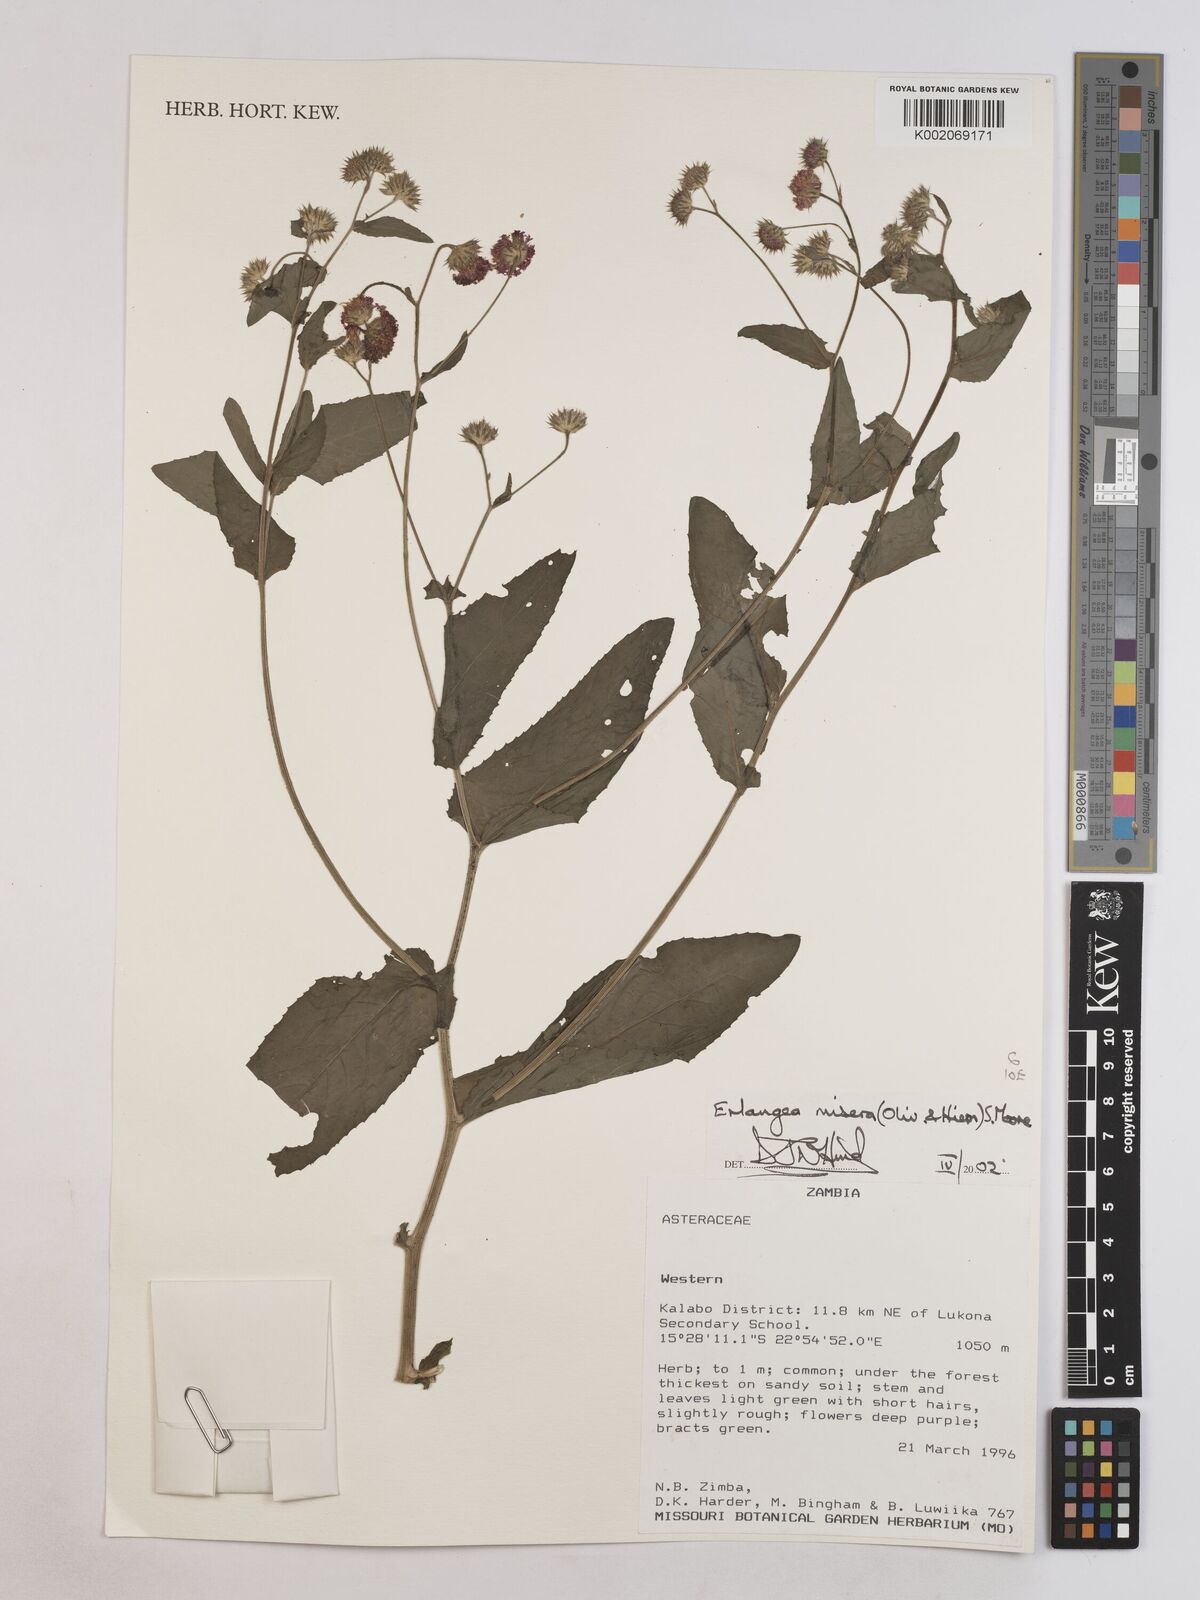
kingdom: Plantae
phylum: Tracheophyta
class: Magnoliopsida
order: Asterales
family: Asteraceae
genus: Erlangea
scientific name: Erlangea misera
